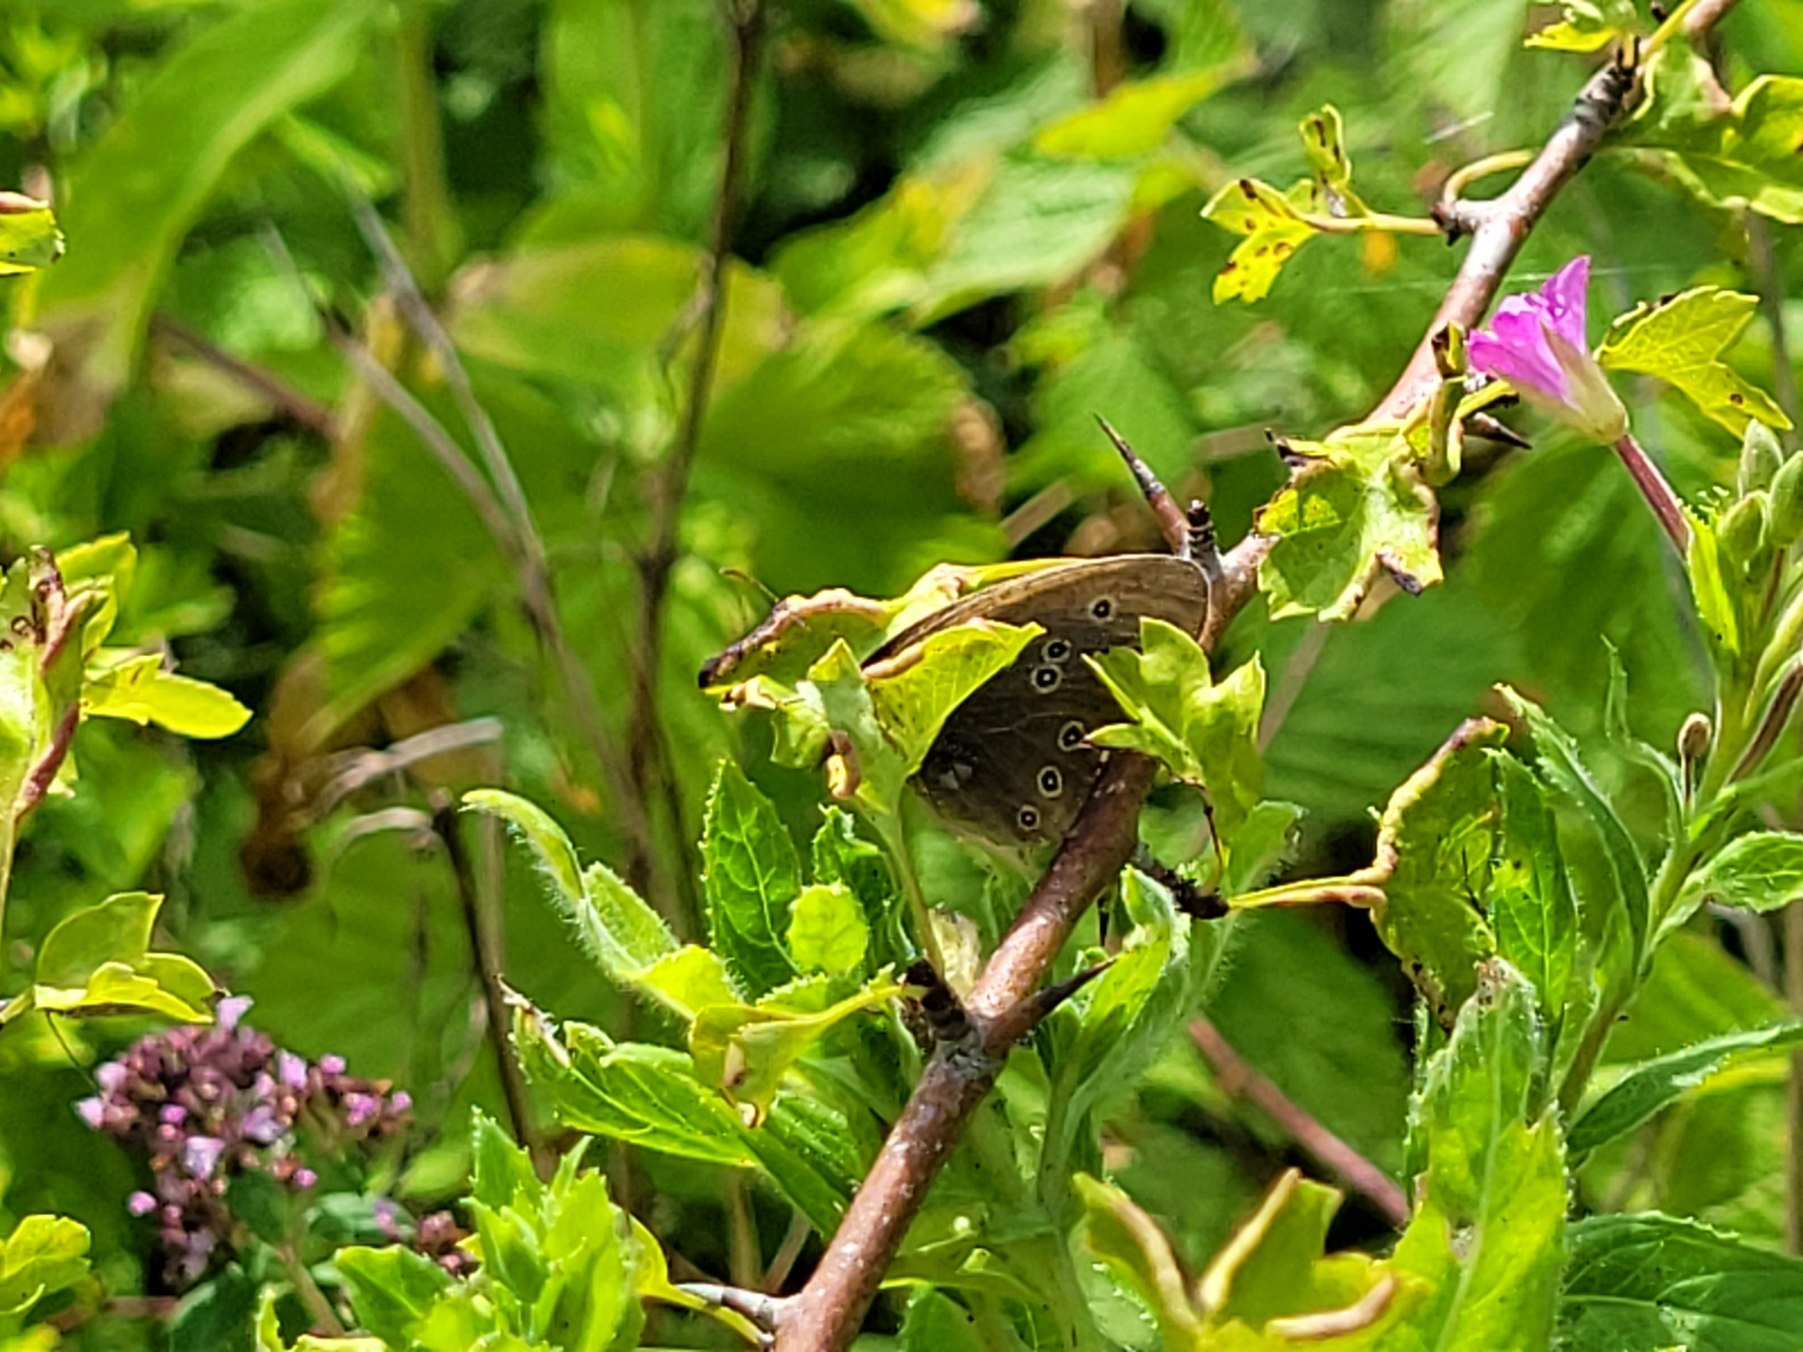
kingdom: Animalia
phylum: Arthropoda
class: Insecta
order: Lepidoptera
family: Nymphalidae
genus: Aphantopus
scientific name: Aphantopus hyperantus
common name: Engrandøje
